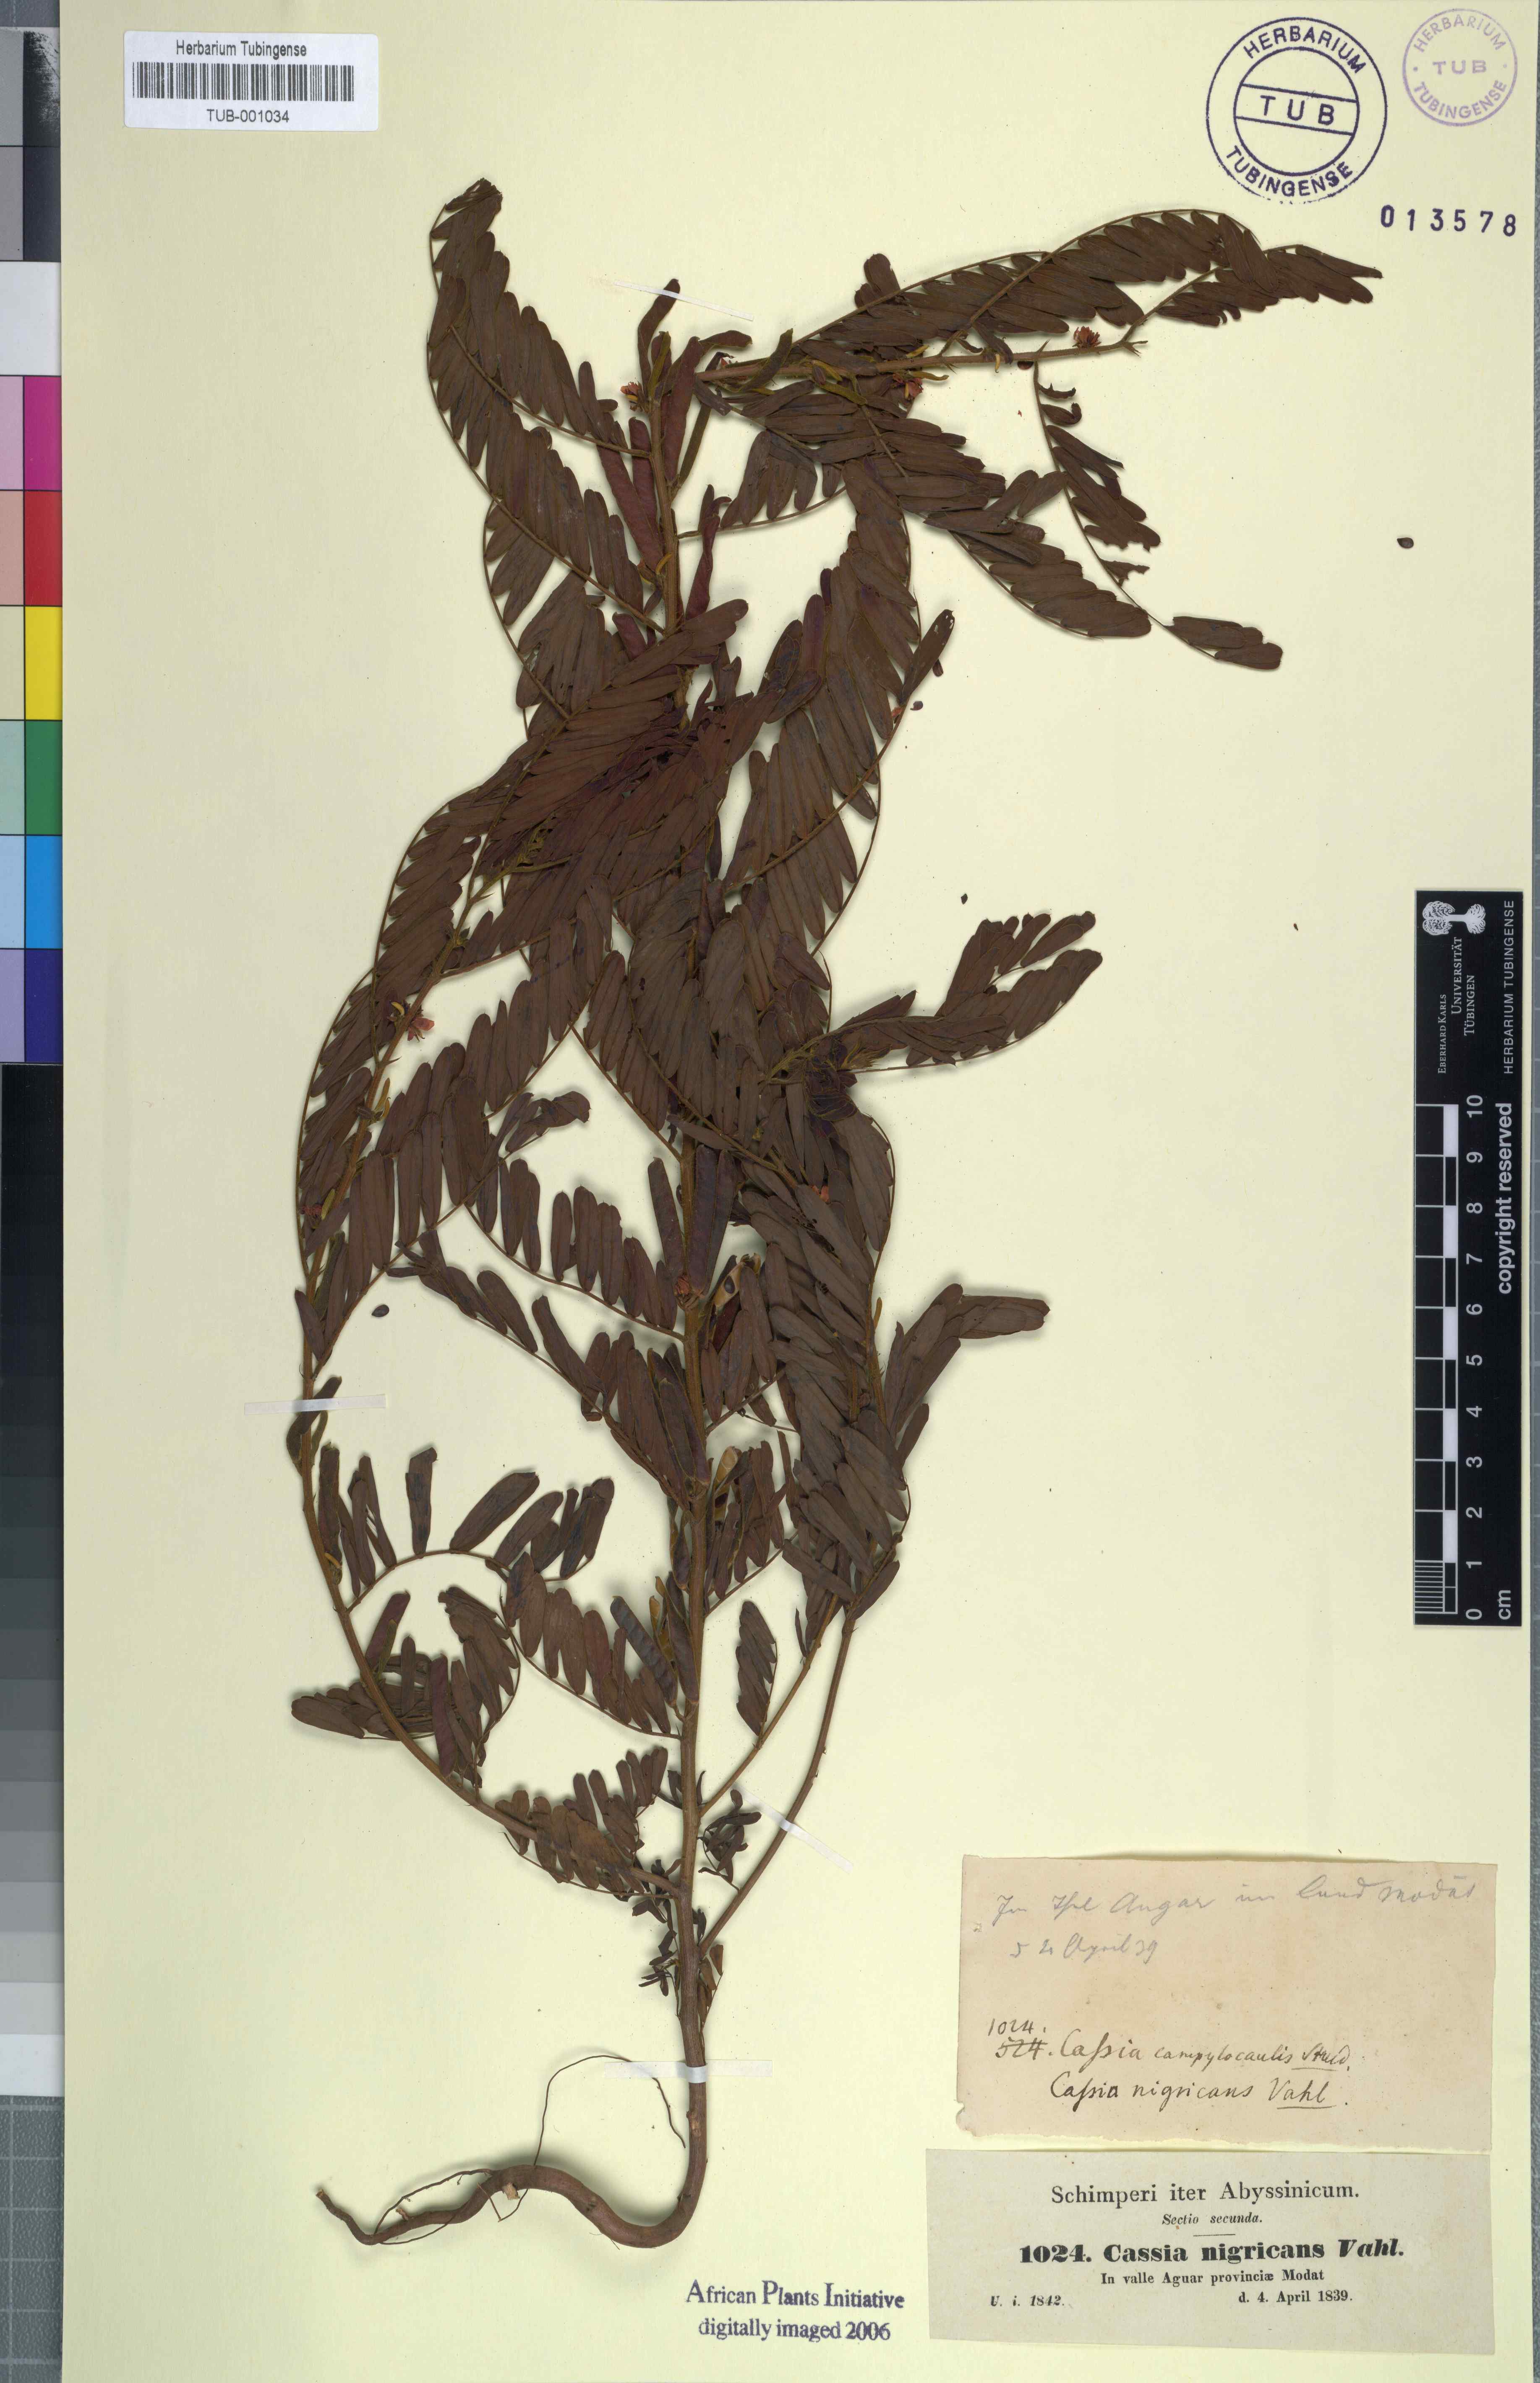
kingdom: Plantae
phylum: Tracheophyta
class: Magnoliopsida
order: Fabales
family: Fabaceae
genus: Chamaecrista
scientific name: Chamaecrista nigricans
